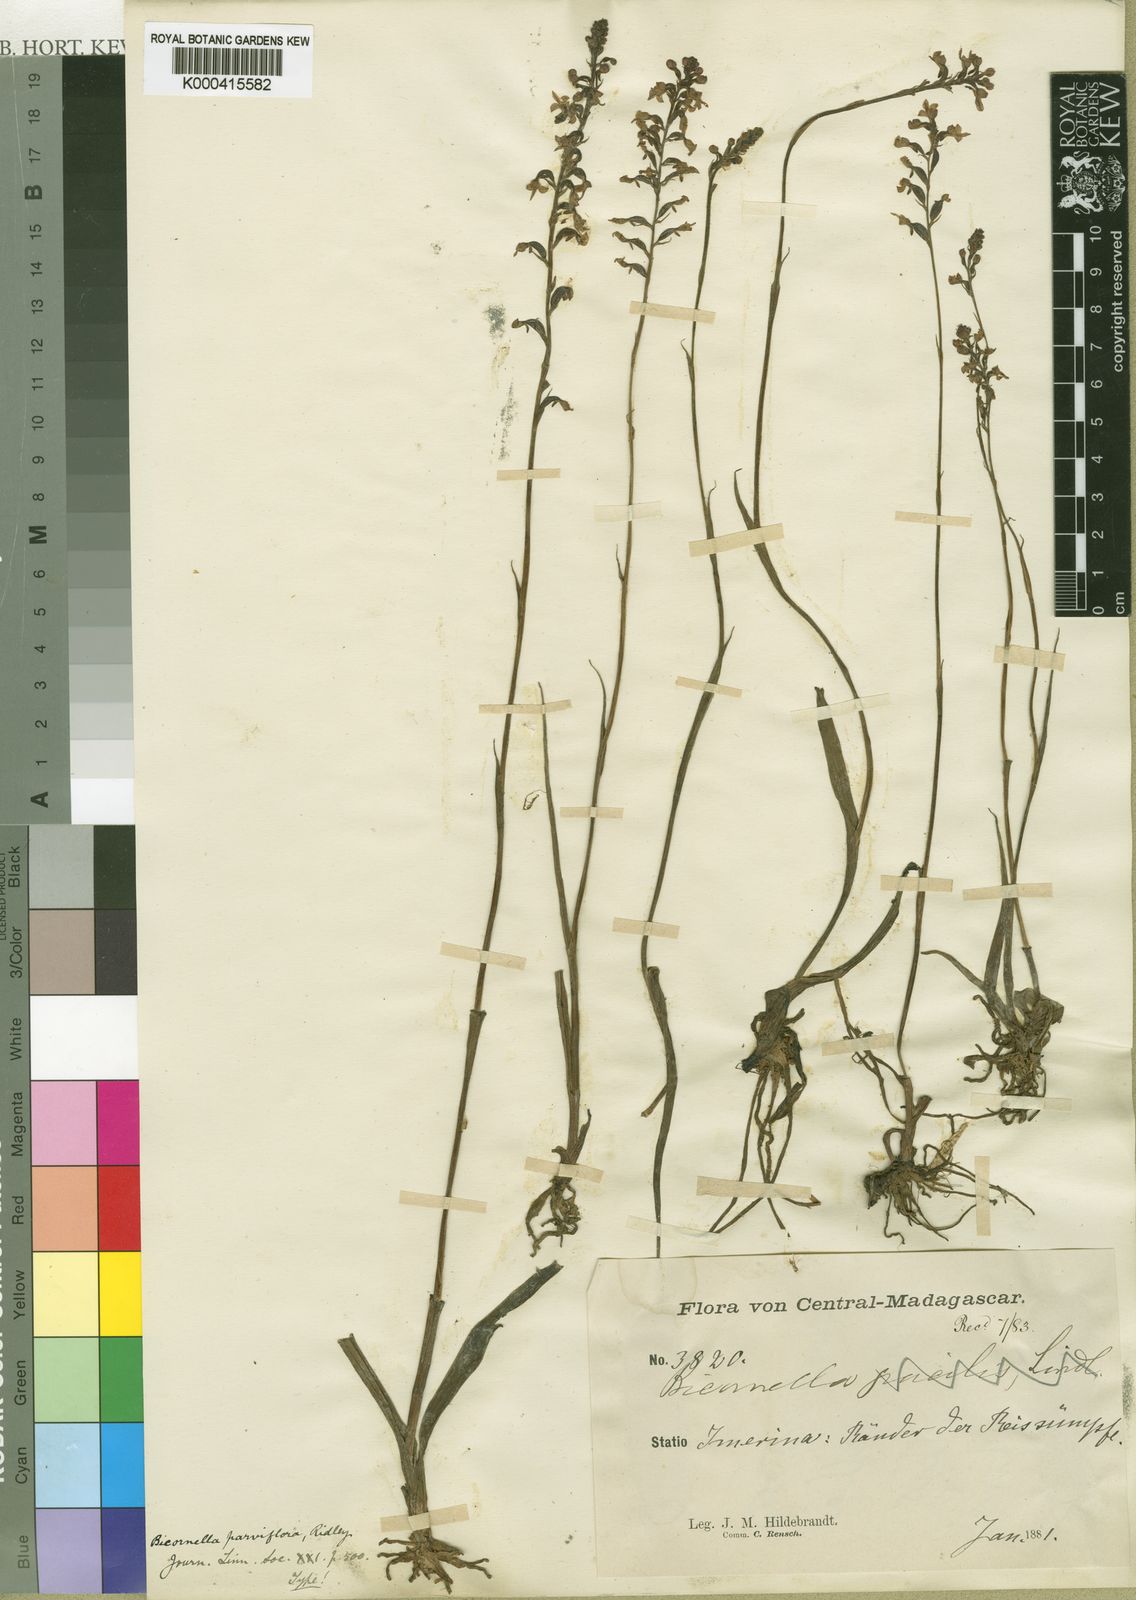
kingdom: Plantae
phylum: Tracheophyta
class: Liliopsida
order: Asparagales
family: Orchidaceae
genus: Cynorkis
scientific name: Cynorkis stolonifera
